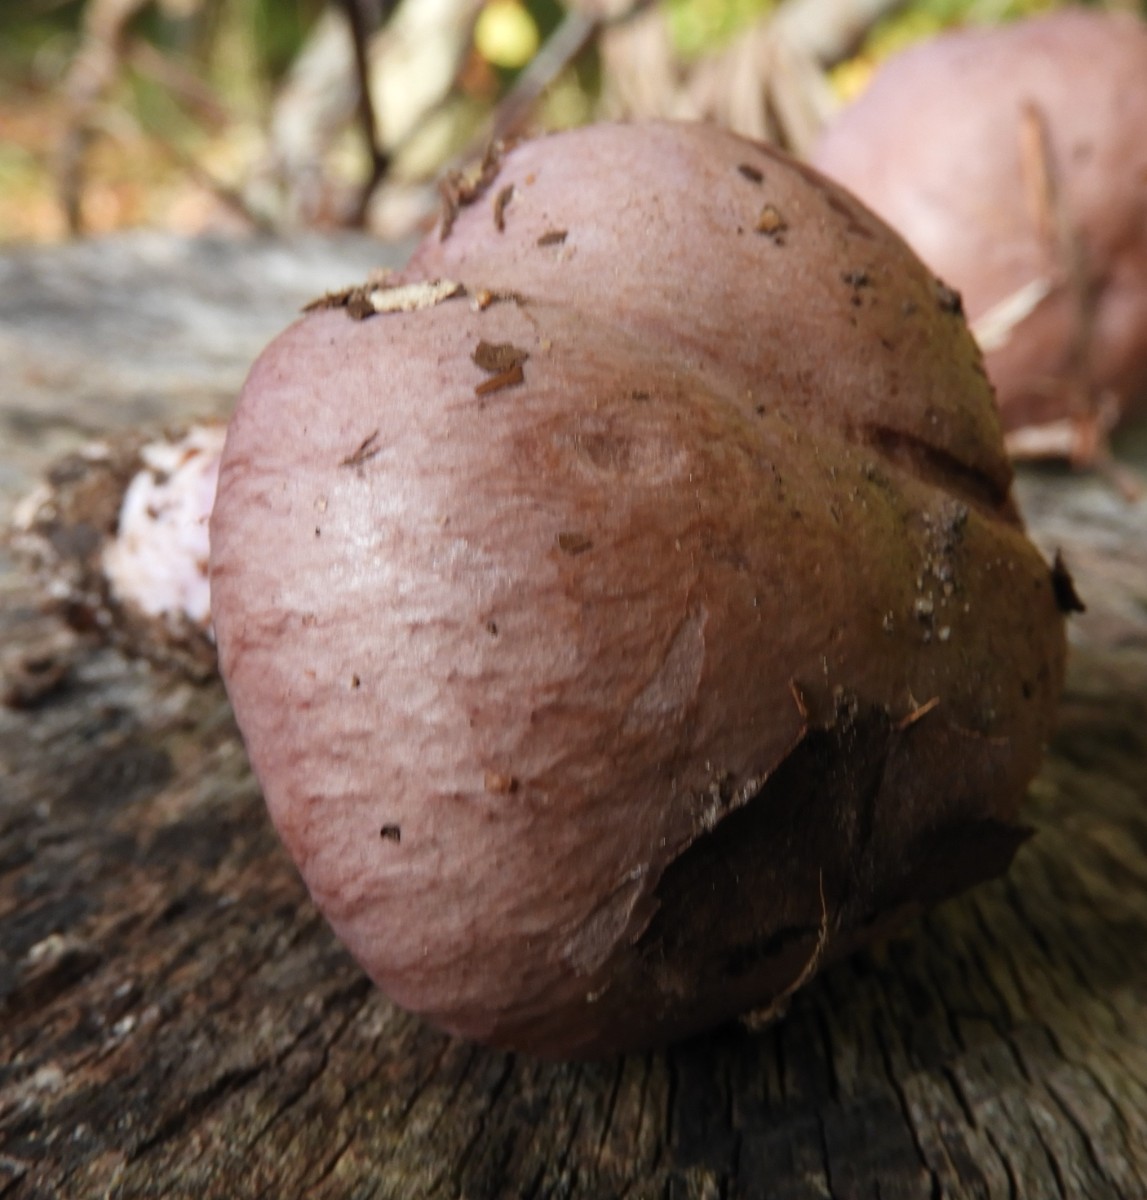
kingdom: Fungi
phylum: Basidiomycota
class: Agaricomycetes
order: Agaricales
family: Cortinariaceae
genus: Cortinarius
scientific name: Cortinarius
